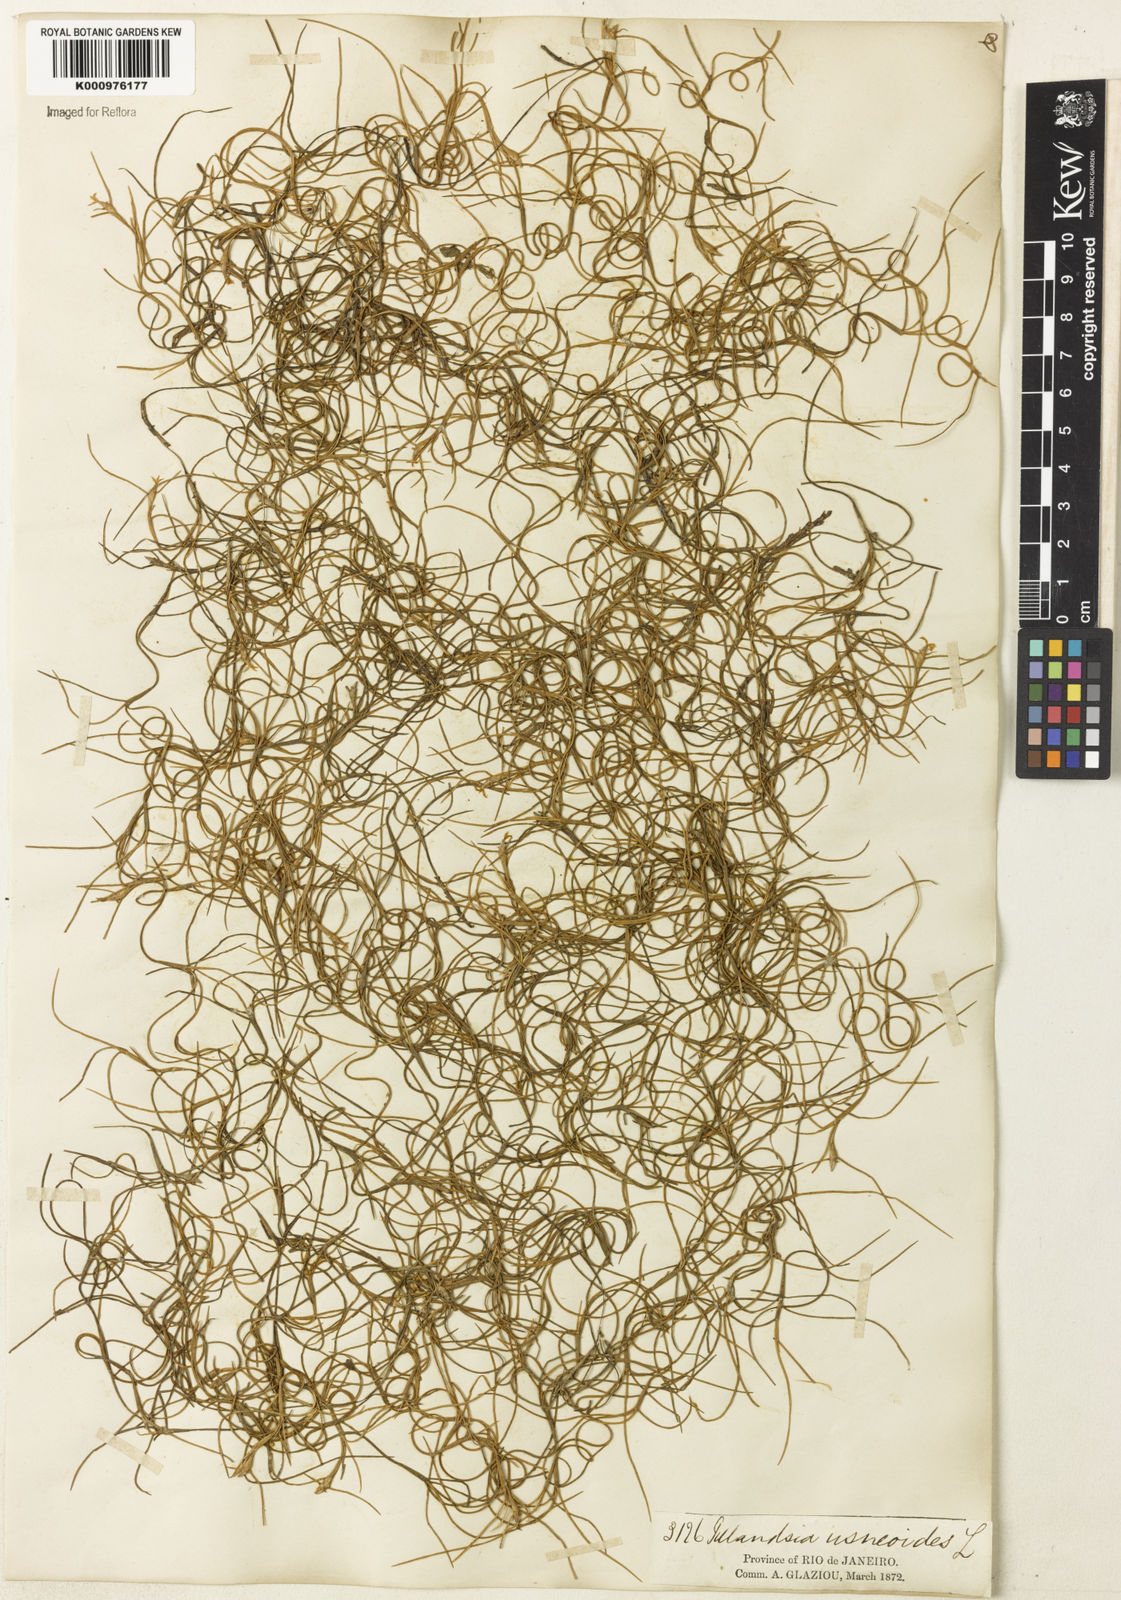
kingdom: Plantae
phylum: Tracheophyta
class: Liliopsida
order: Poales
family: Bromeliaceae
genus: Tillandsia
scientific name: Tillandsia usneoides
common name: Spanish moss
